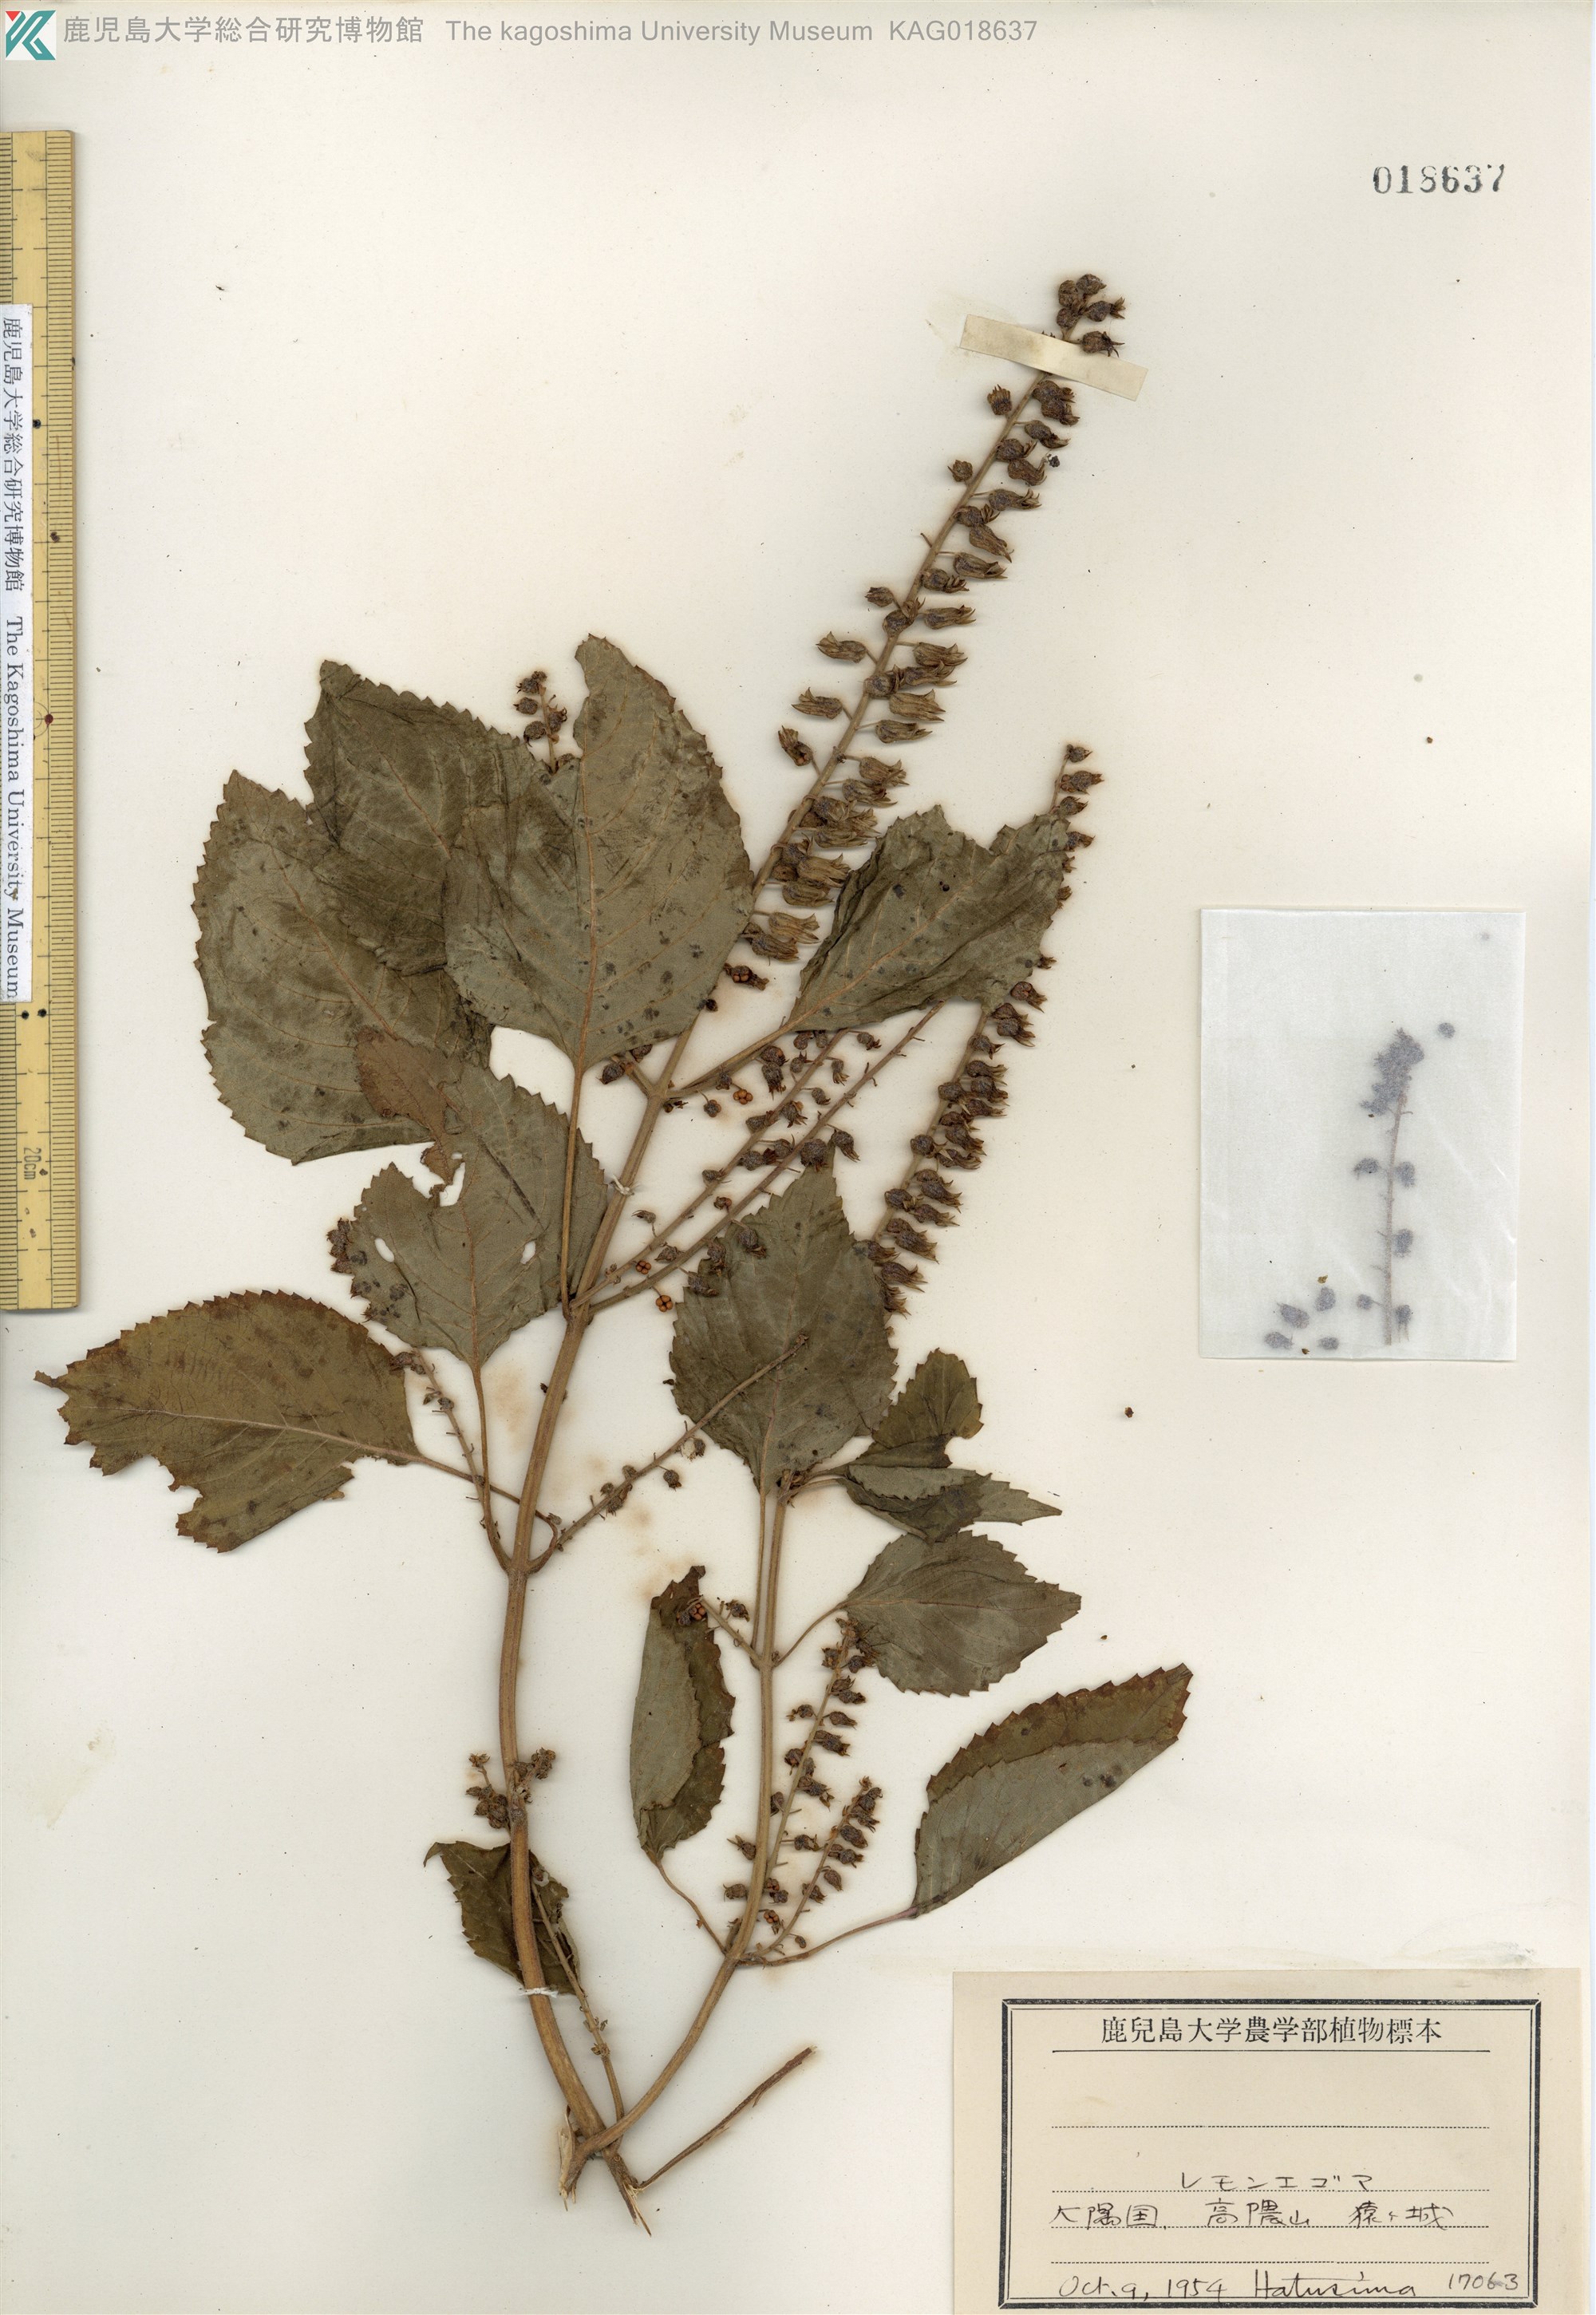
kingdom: Plantae
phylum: Tracheophyta
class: Magnoliopsida
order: Lamiales
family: Lamiaceae
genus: Perilla
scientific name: Perilla frutescens
